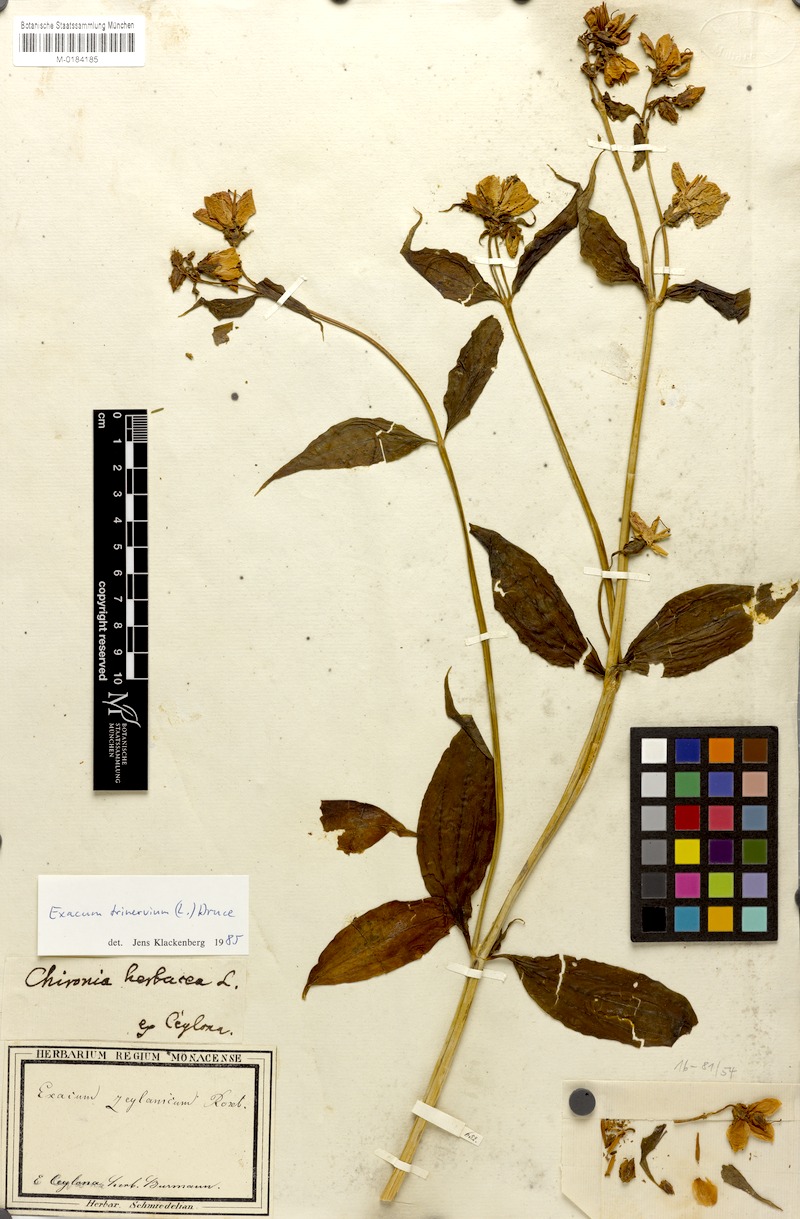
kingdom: Plantae
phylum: Tracheophyta
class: Magnoliopsida
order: Gentianales
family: Gentianaceae
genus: Exacum
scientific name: Exacum trinervium
